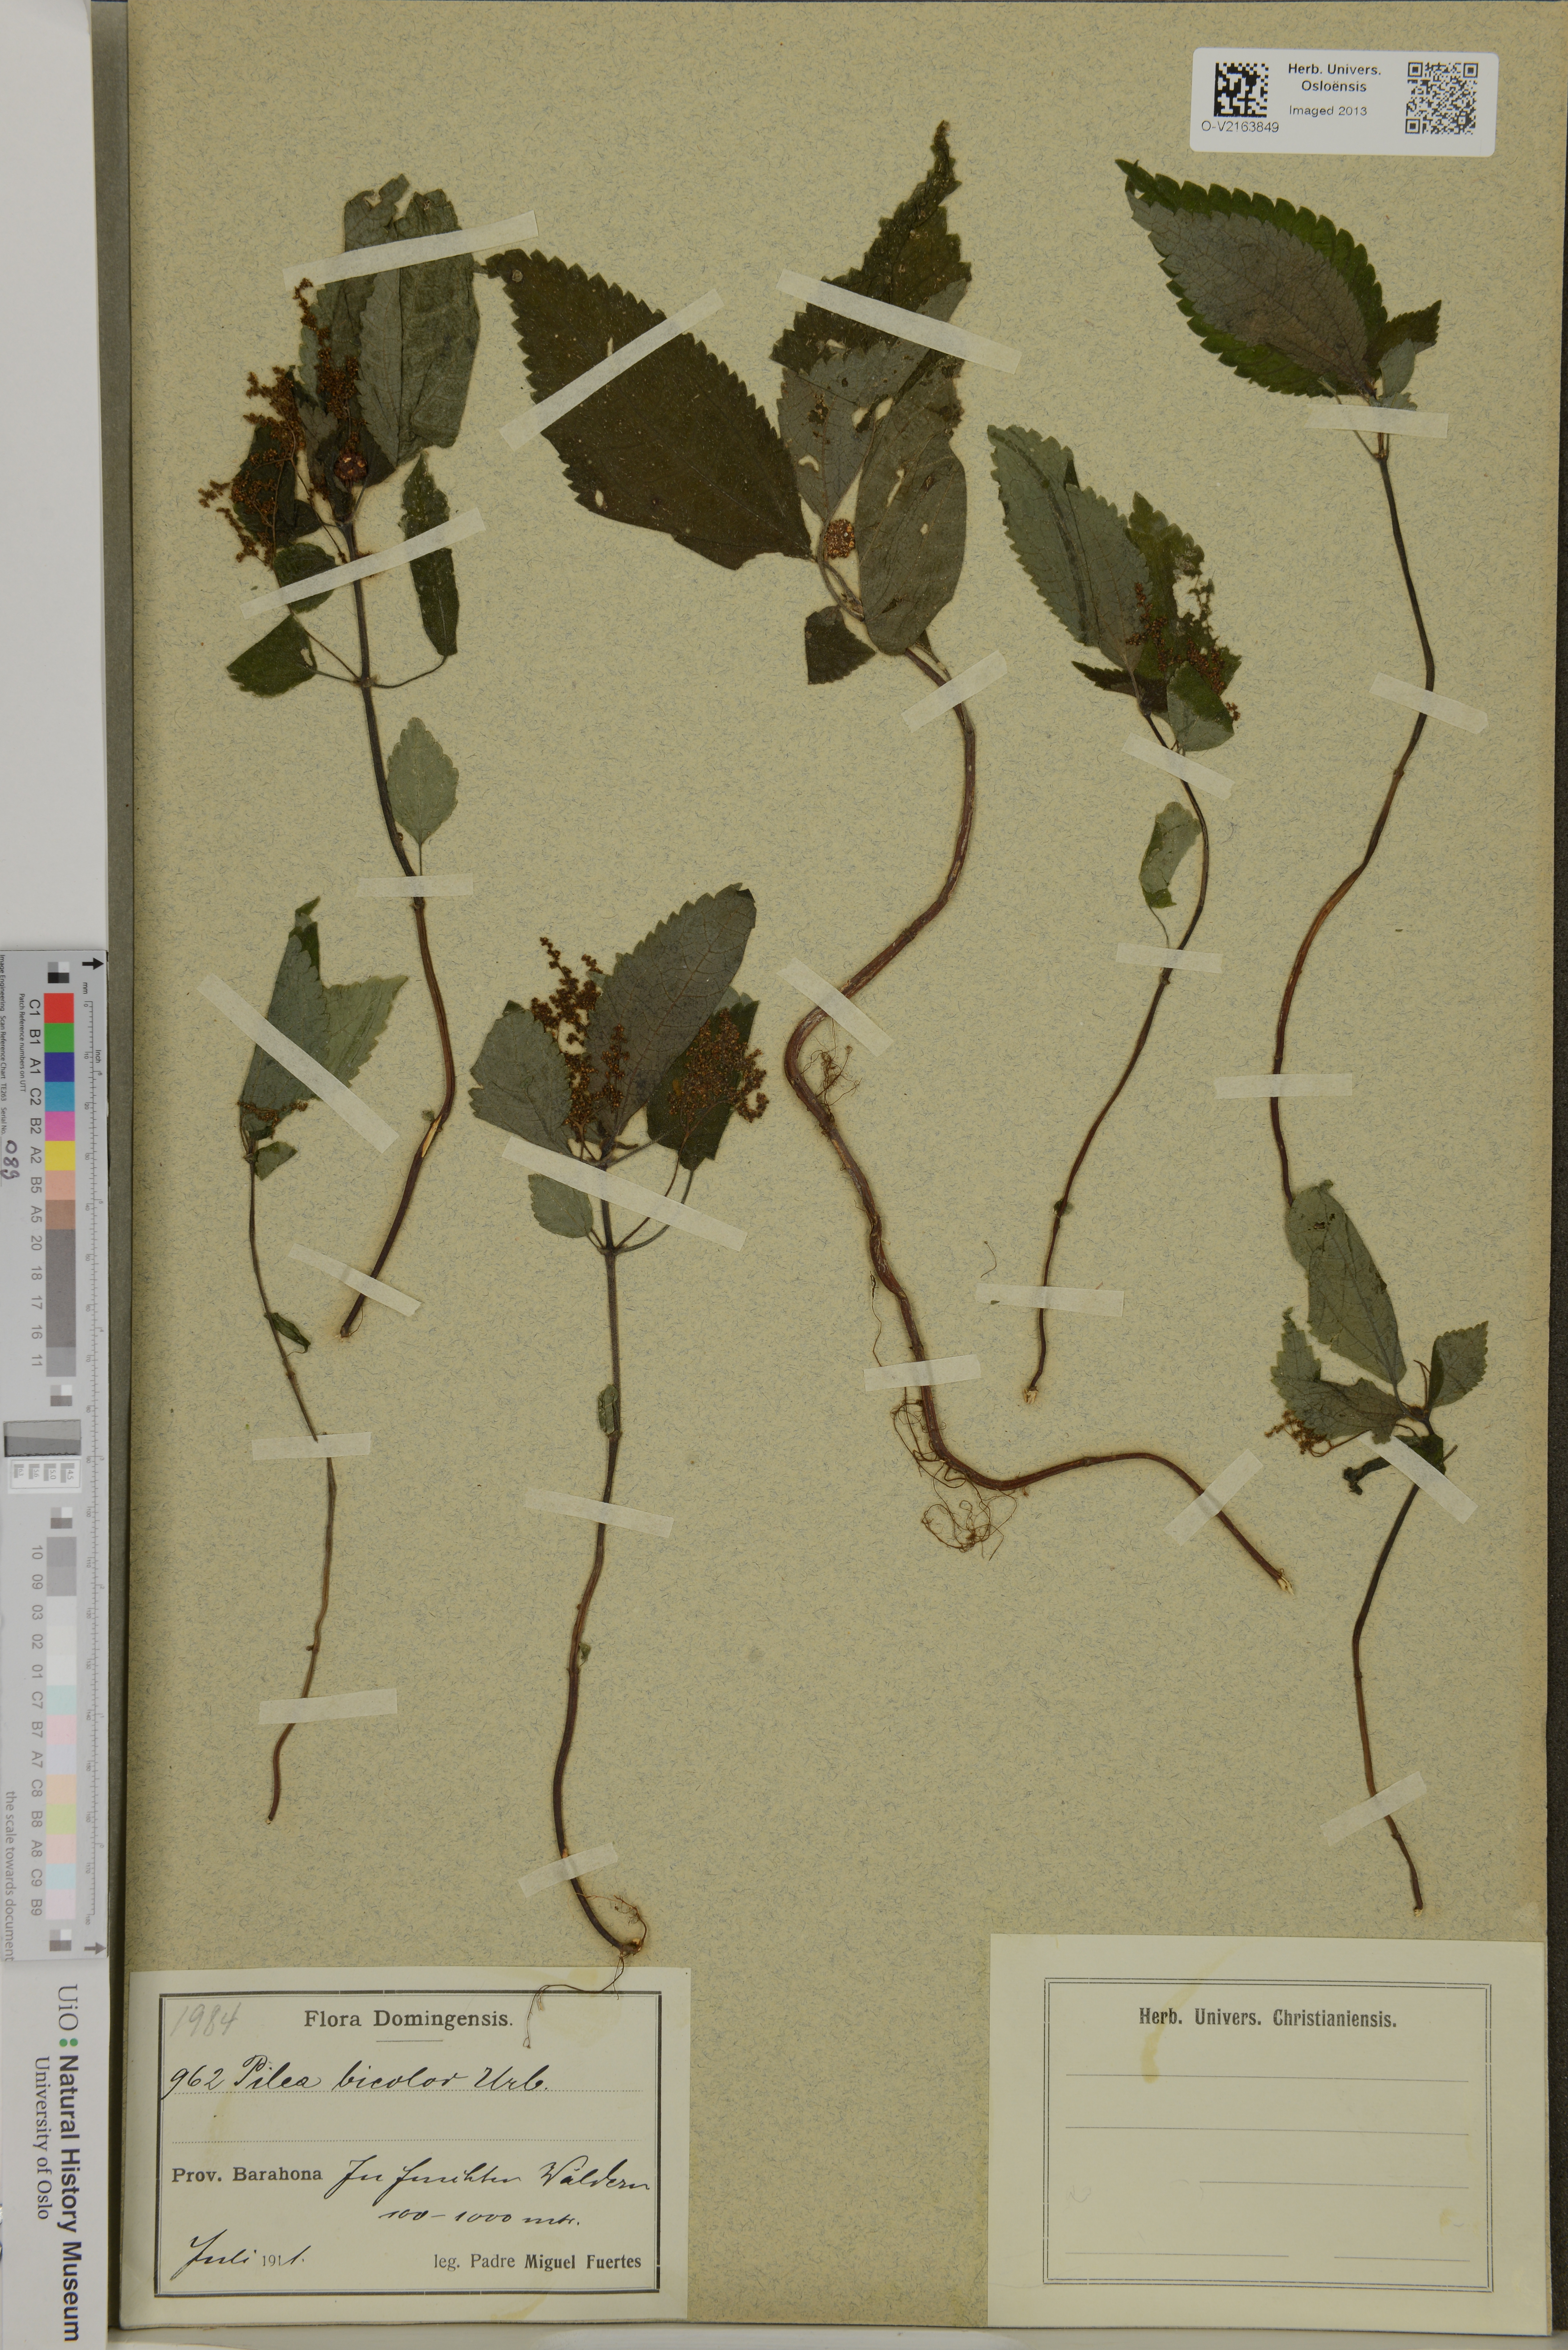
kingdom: Plantae
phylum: Tracheophyta
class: Magnoliopsida
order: Rosales
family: Urticaceae
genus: Pilea
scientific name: Pilea bicolor
